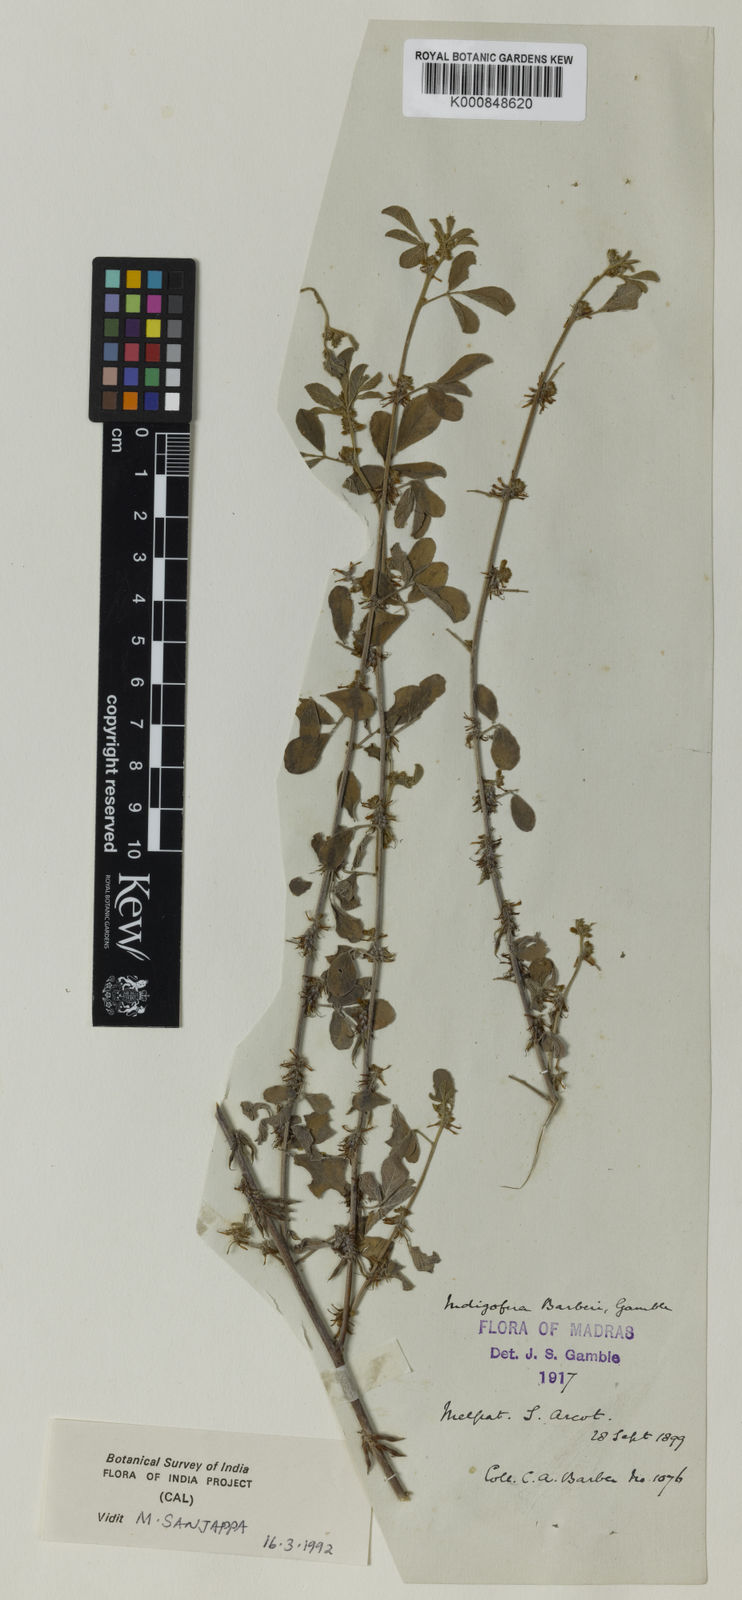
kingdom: Plantae
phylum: Tracheophyta
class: Magnoliopsida
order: Fabales
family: Fabaceae
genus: Indigofera
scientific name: Indigofera barberi
